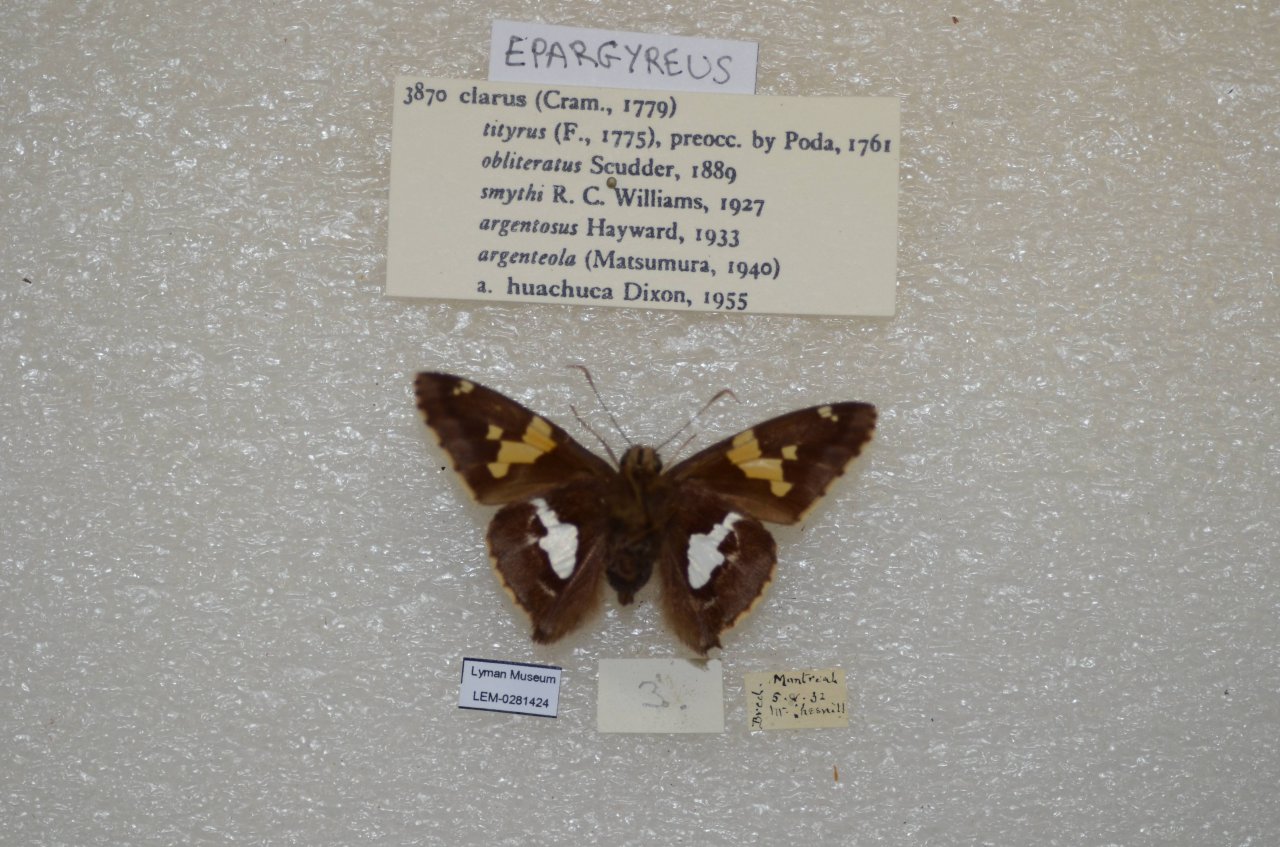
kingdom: Animalia
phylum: Arthropoda
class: Insecta
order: Lepidoptera
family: Hesperiidae
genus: Epargyreus
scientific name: Epargyreus clarus
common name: Silver-spotted Skipper
